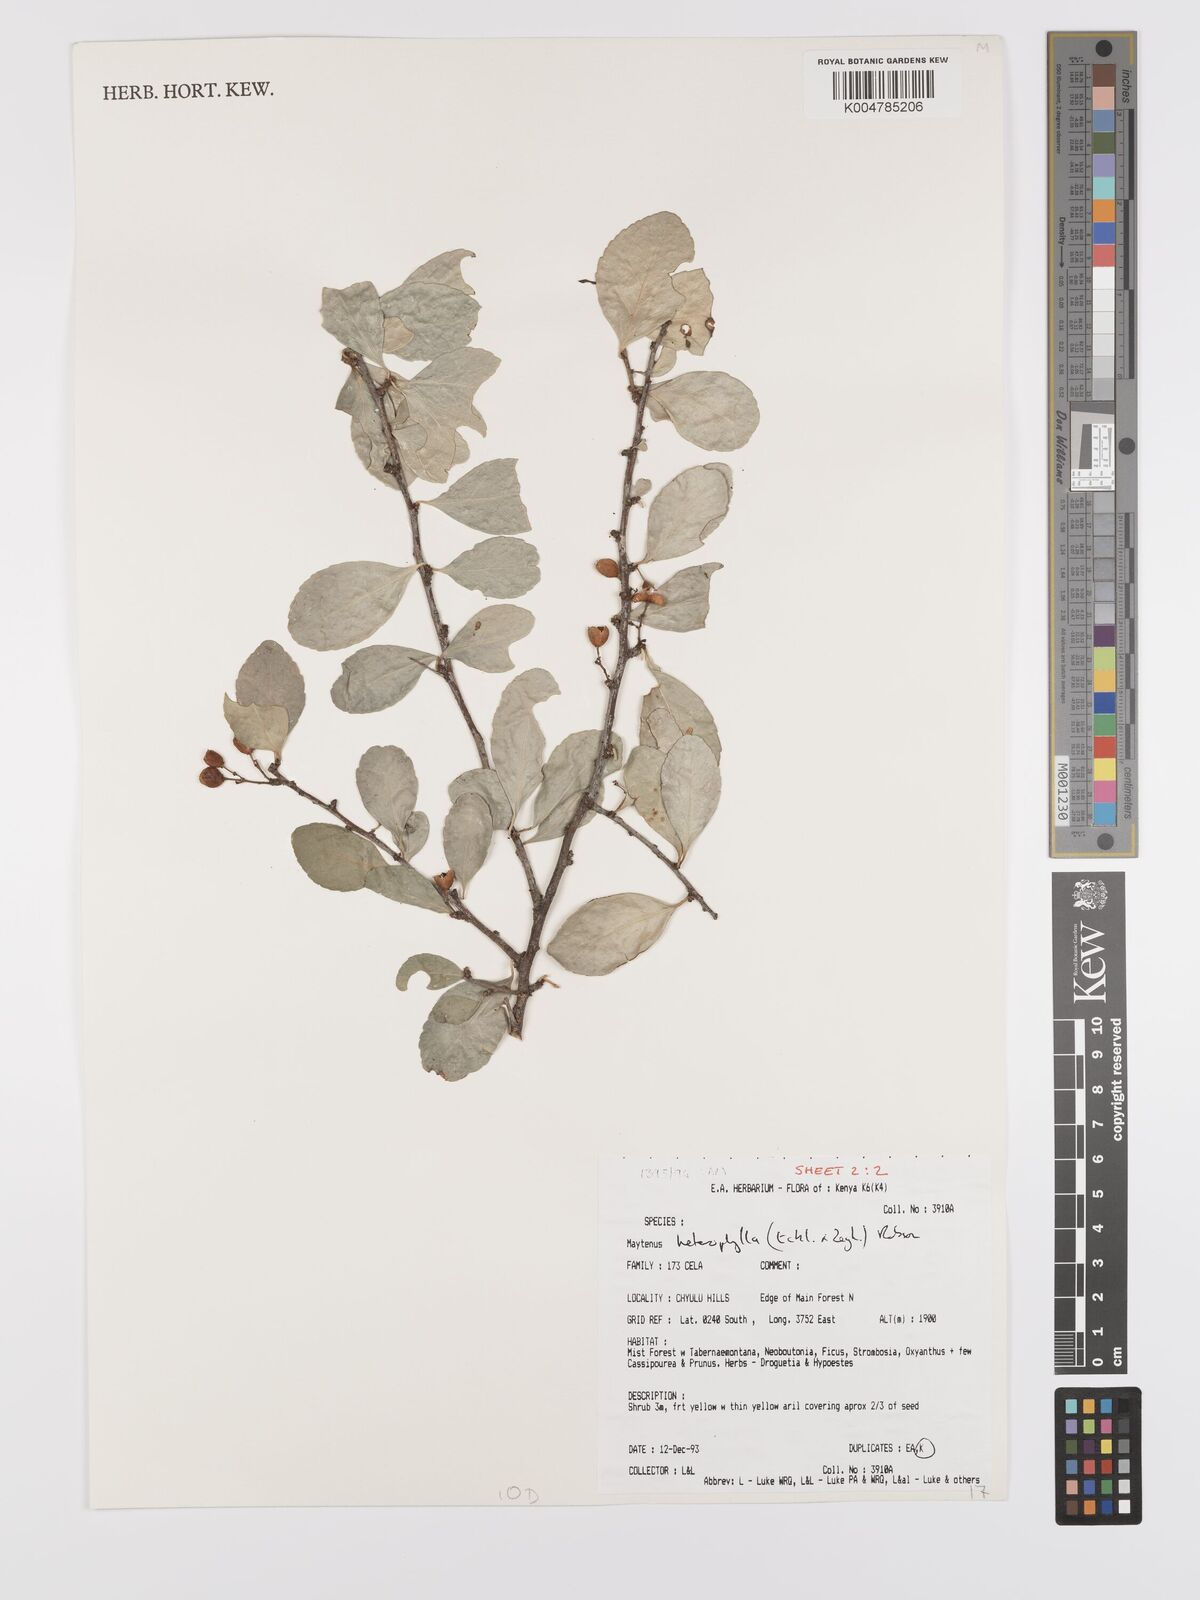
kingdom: Plantae
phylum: Tracheophyta
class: Magnoliopsida
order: Celastrales
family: Celastraceae
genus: Gymnosporia
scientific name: Gymnosporia heterophylla
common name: Angle-stem spikethorn
